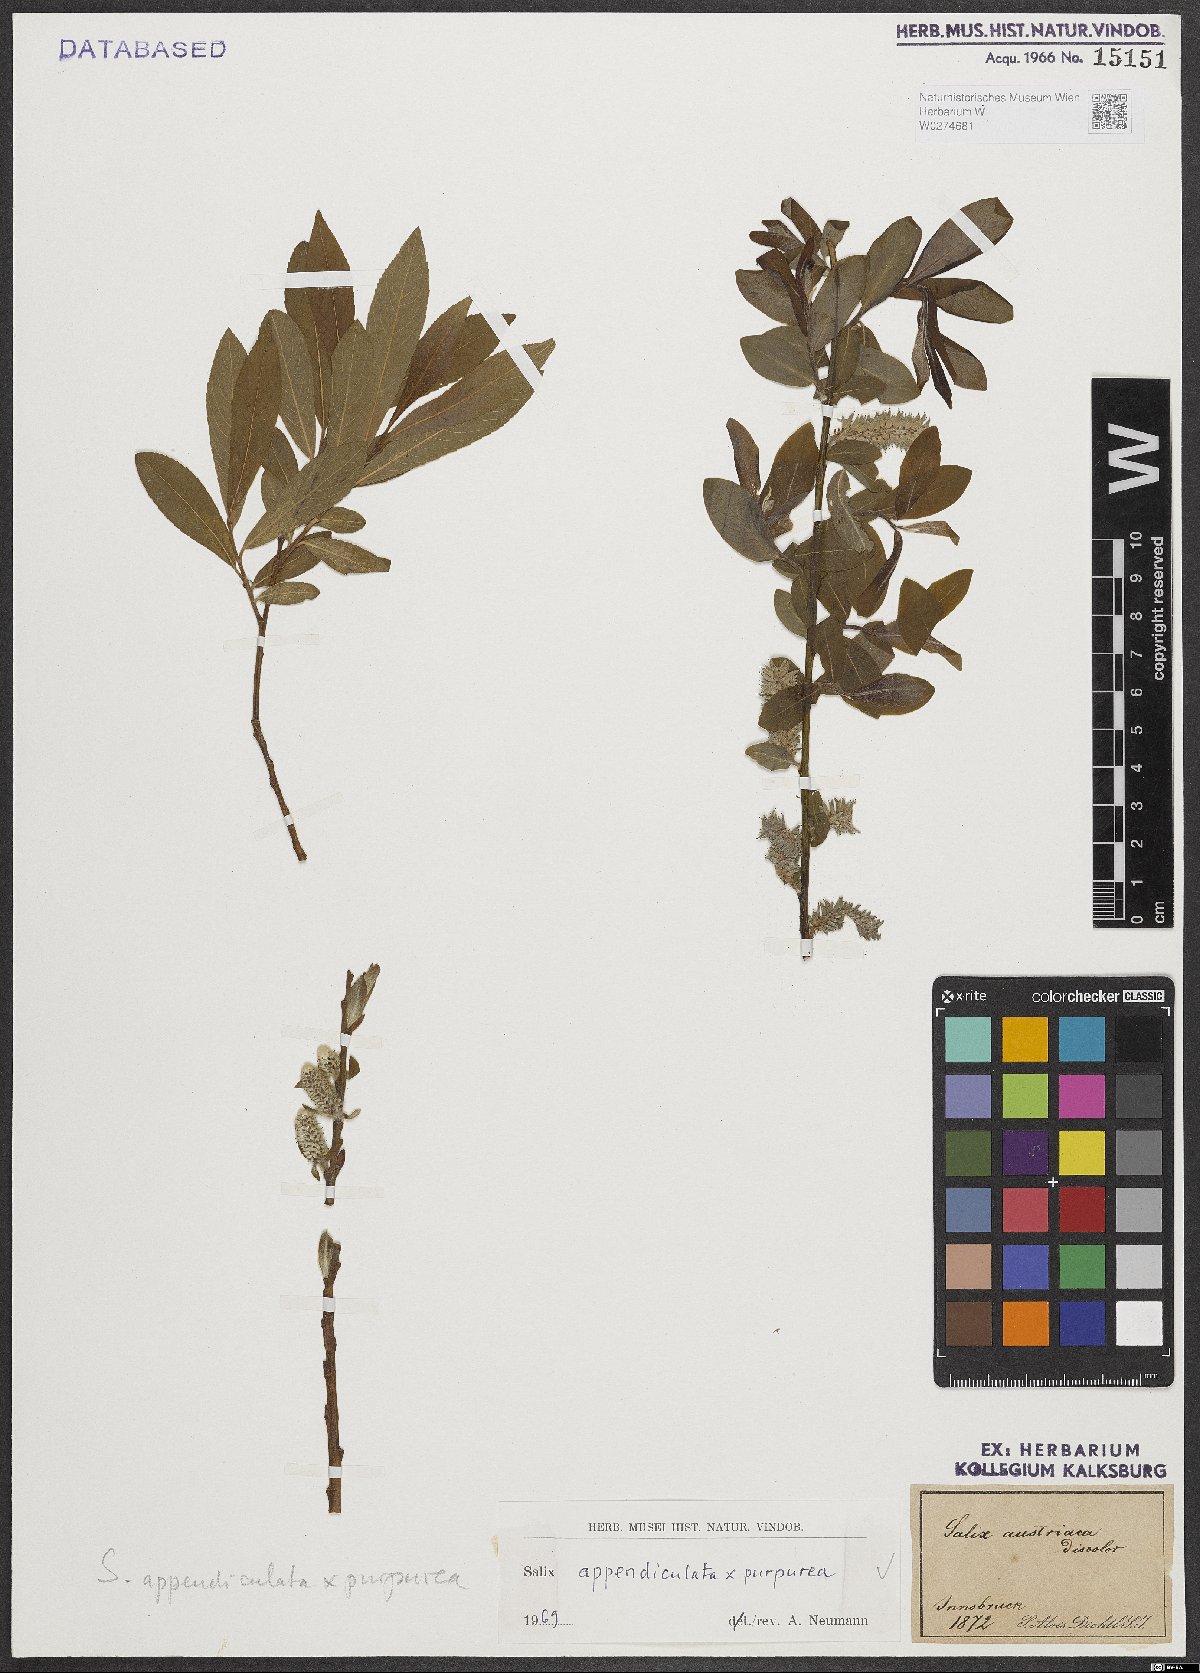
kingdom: Plantae
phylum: Tracheophyta
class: Magnoliopsida
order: Malpighiales
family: Salicaceae
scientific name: Salicaceae
